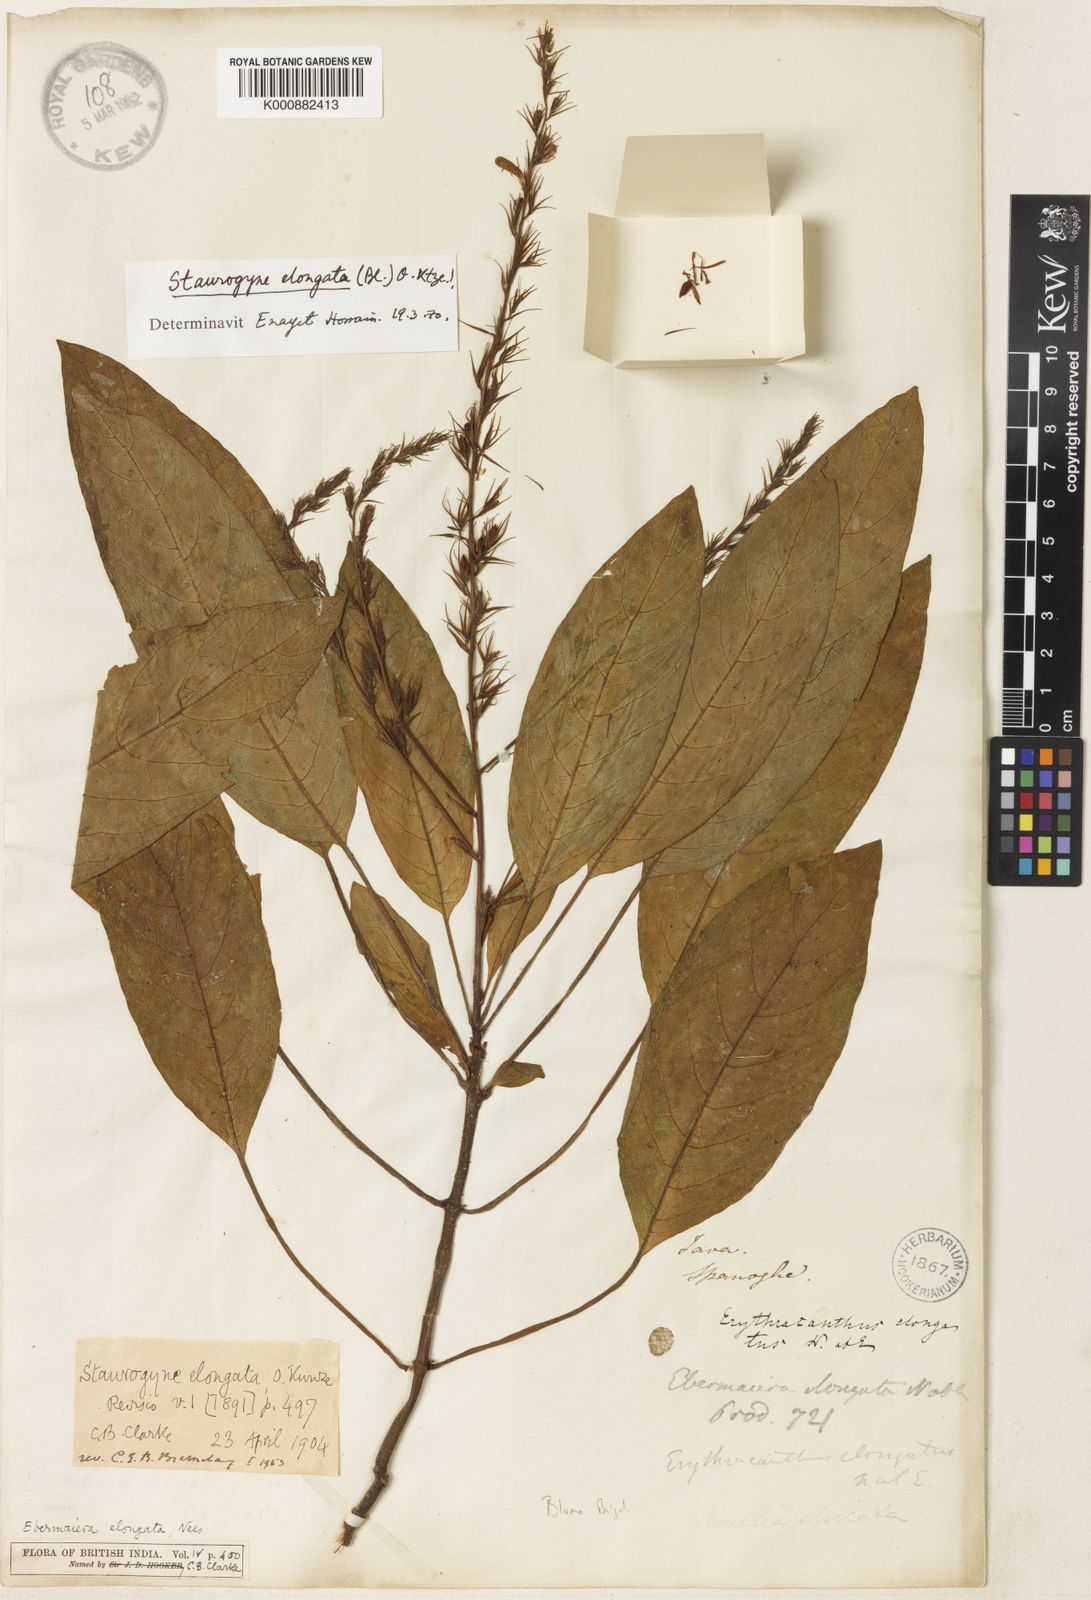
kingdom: Plantae
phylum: Tracheophyta
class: Magnoliopsida
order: Lamiales
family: Acanthaceae
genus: Staurogyne
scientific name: Staurogyne elongata
